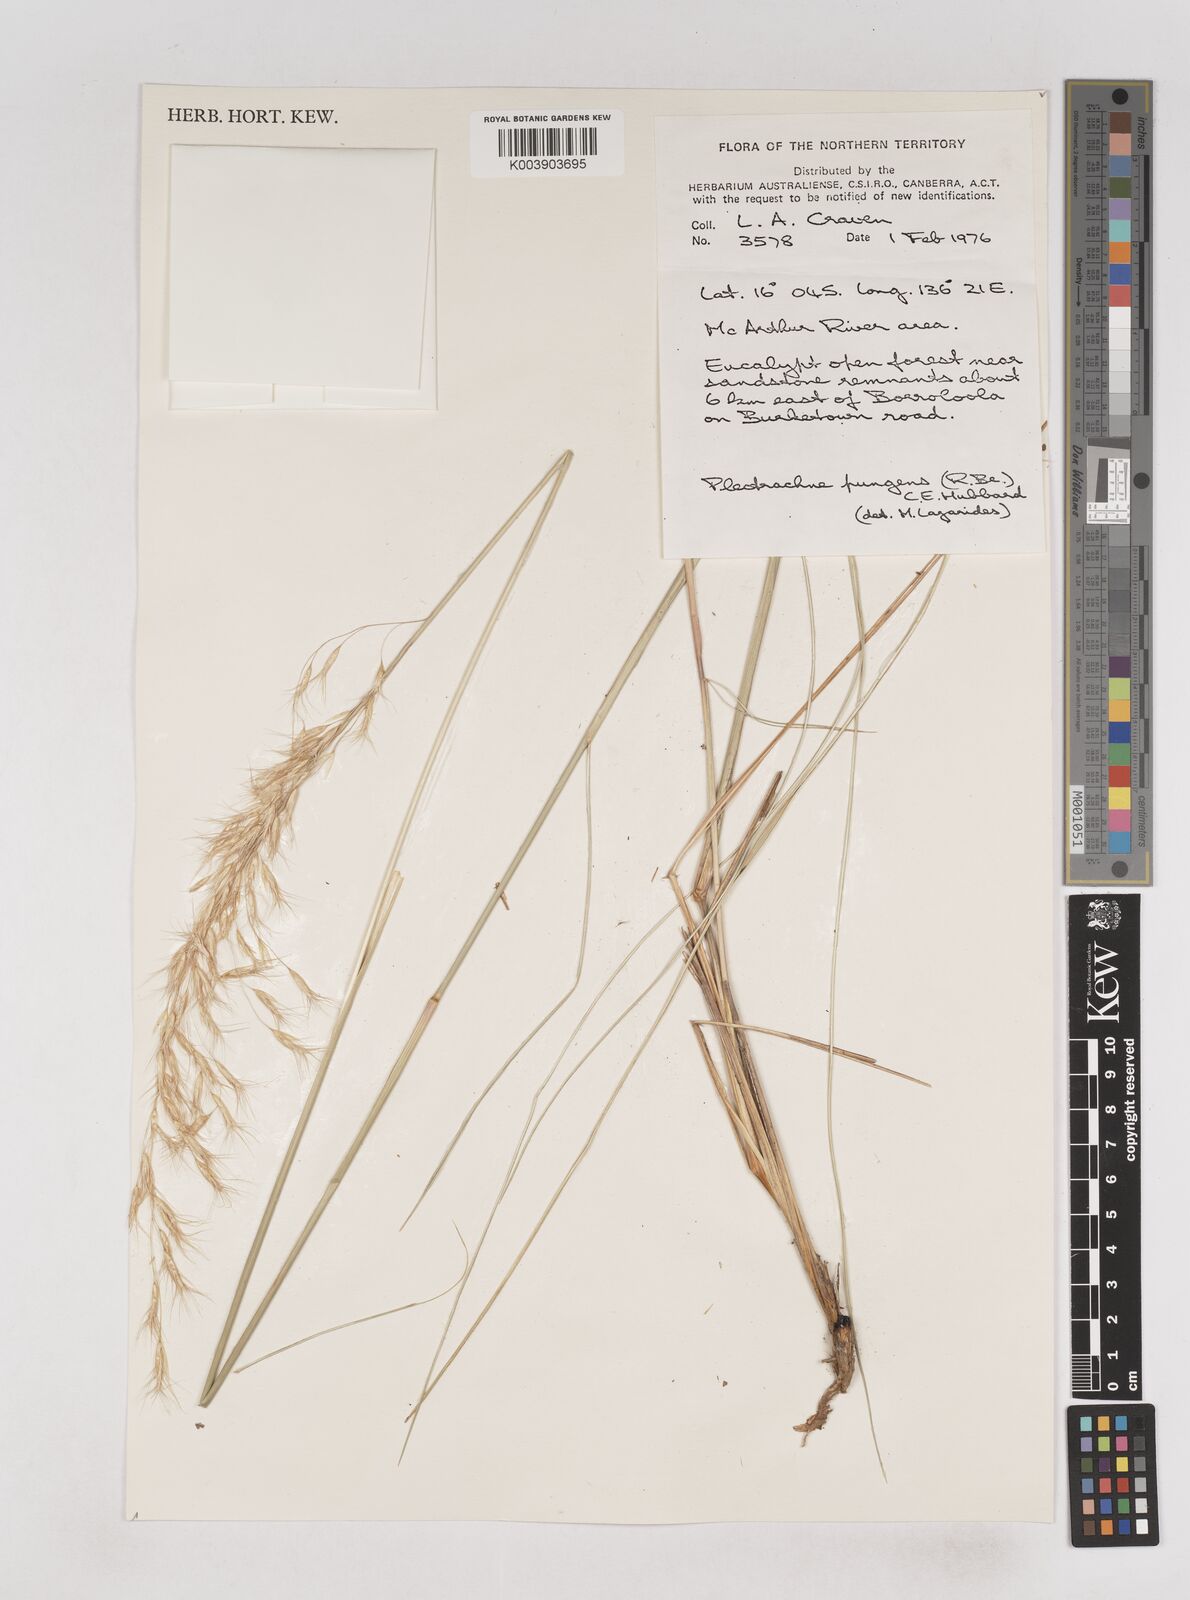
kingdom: Plantae
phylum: Tracheophyta
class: Liliopsida
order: Poales
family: Poaceae
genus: Triodia
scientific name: Triodia bitextura
